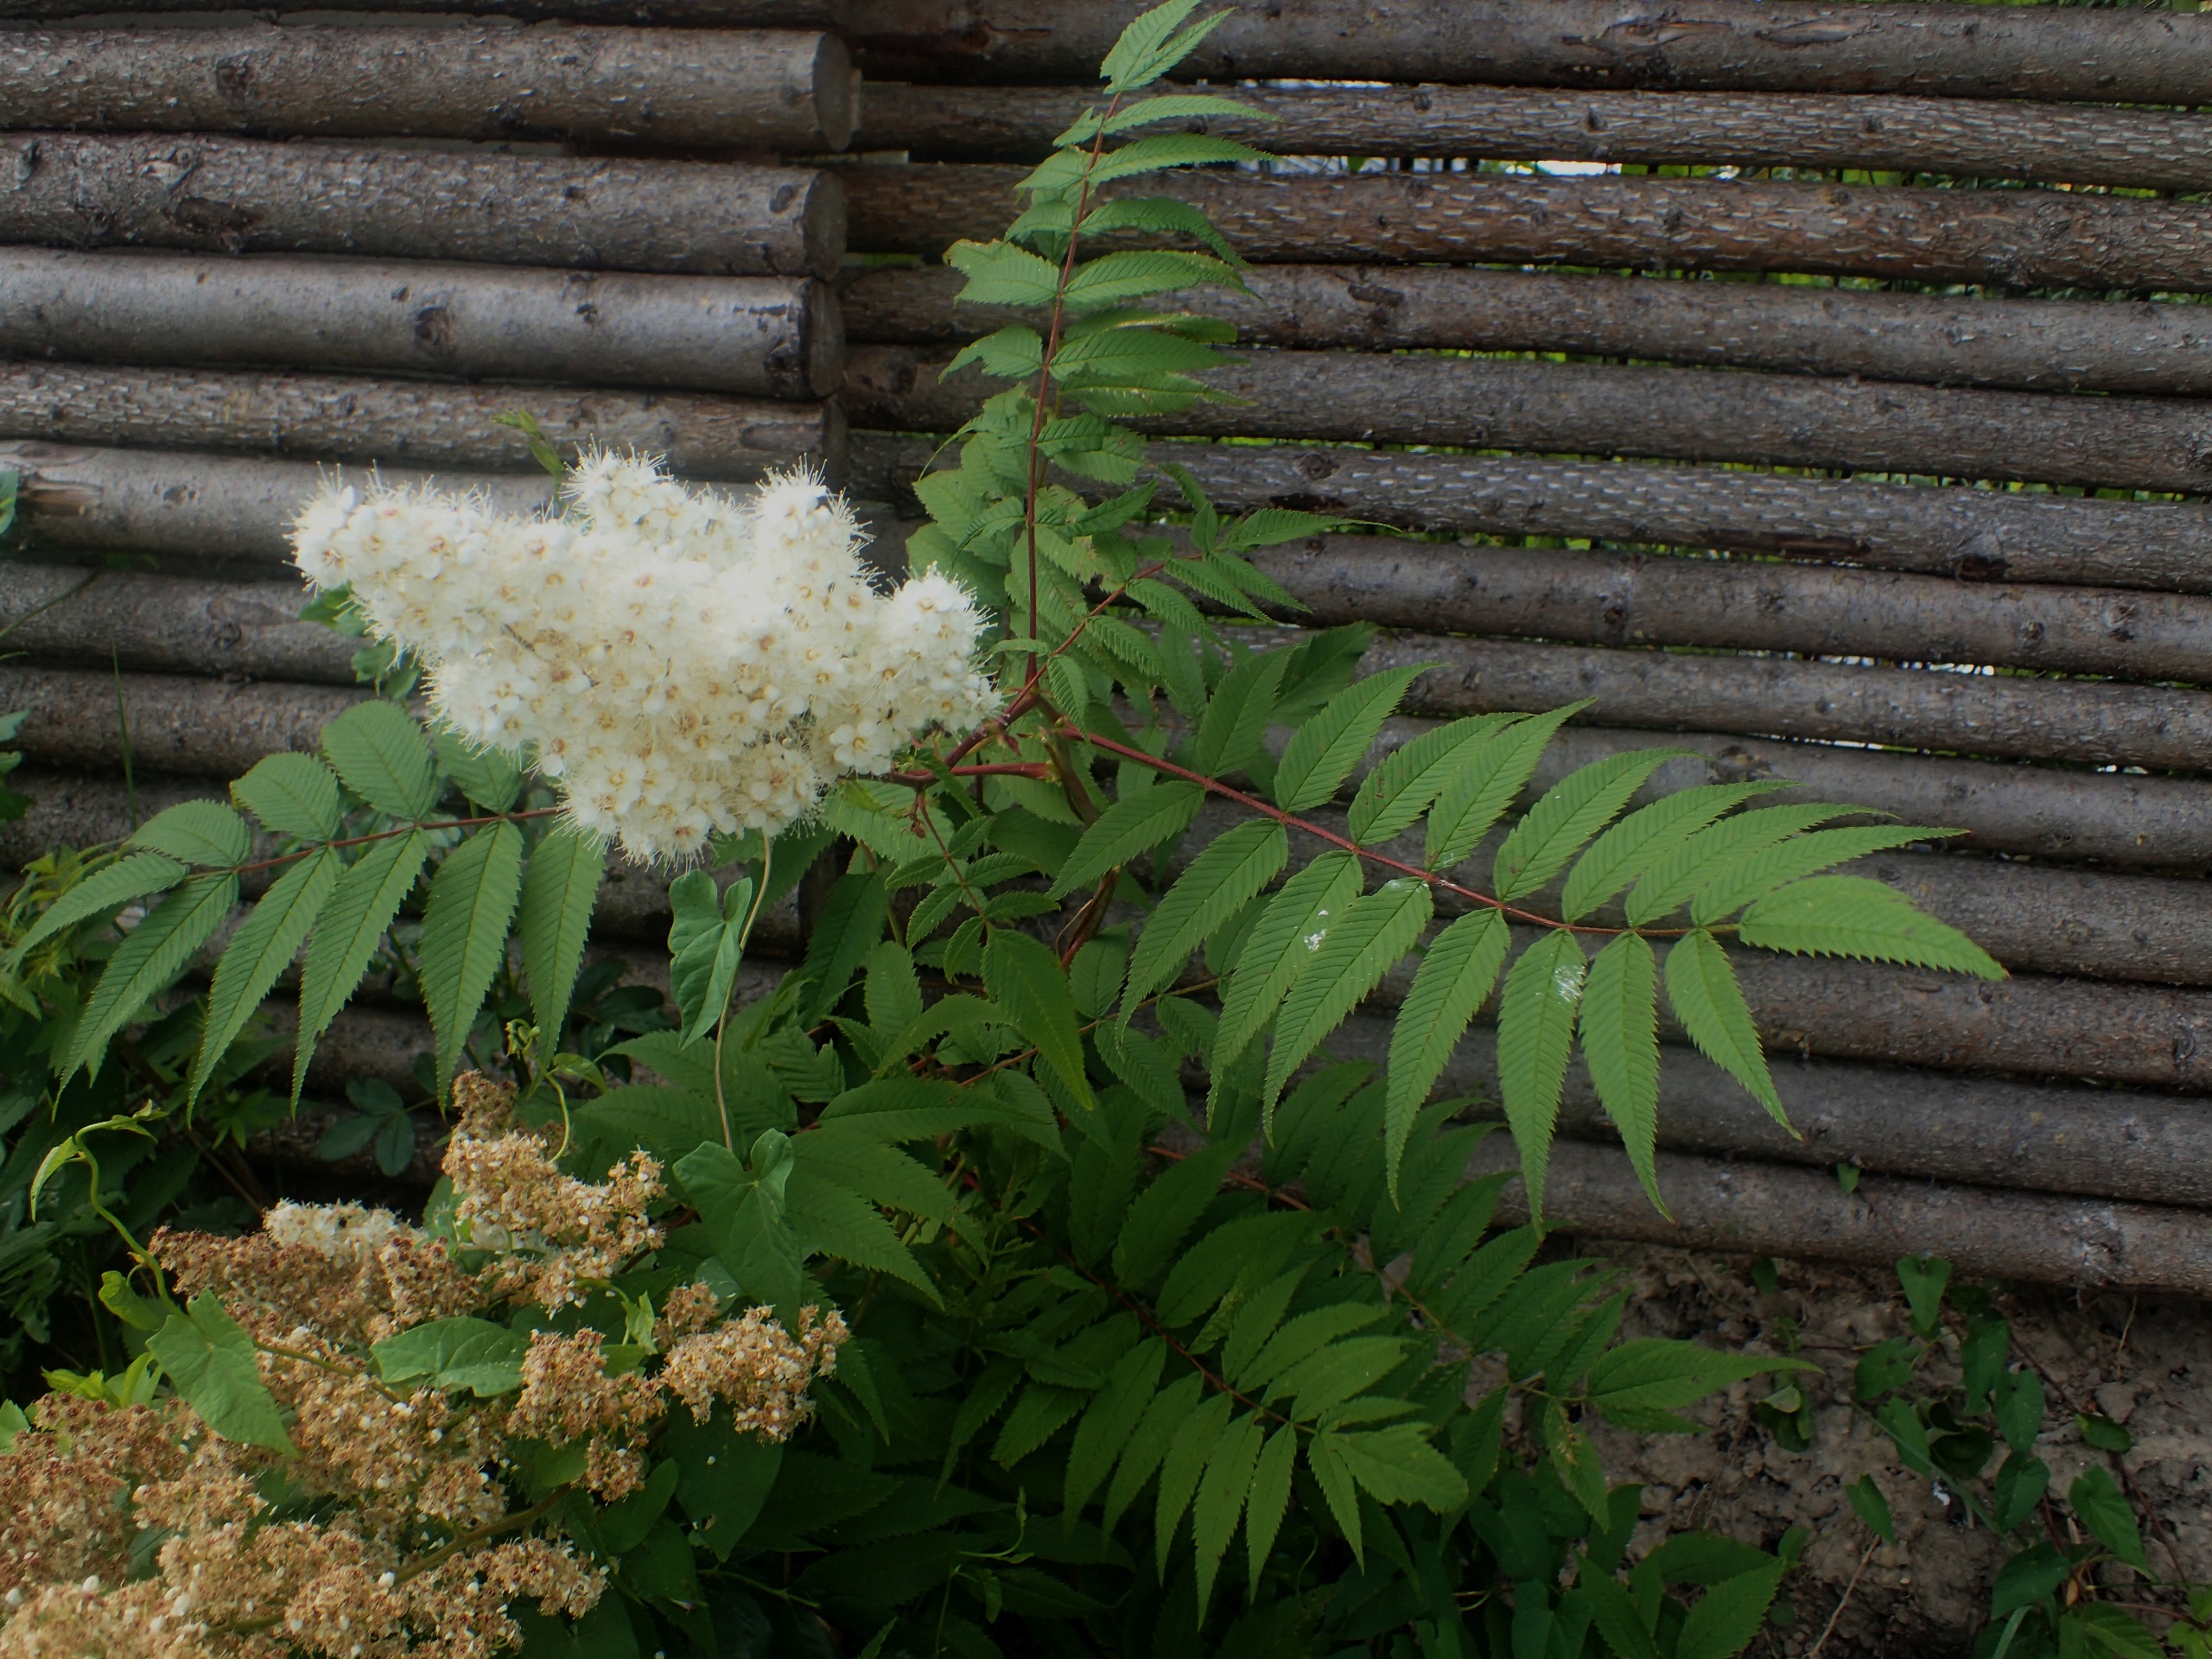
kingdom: Plantae
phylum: Tracheophyta
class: Magnoliopsida
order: Rosales
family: Rosaceae
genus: Sorbaria
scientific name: Sorbaria sorbifolia
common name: Tusindtop
